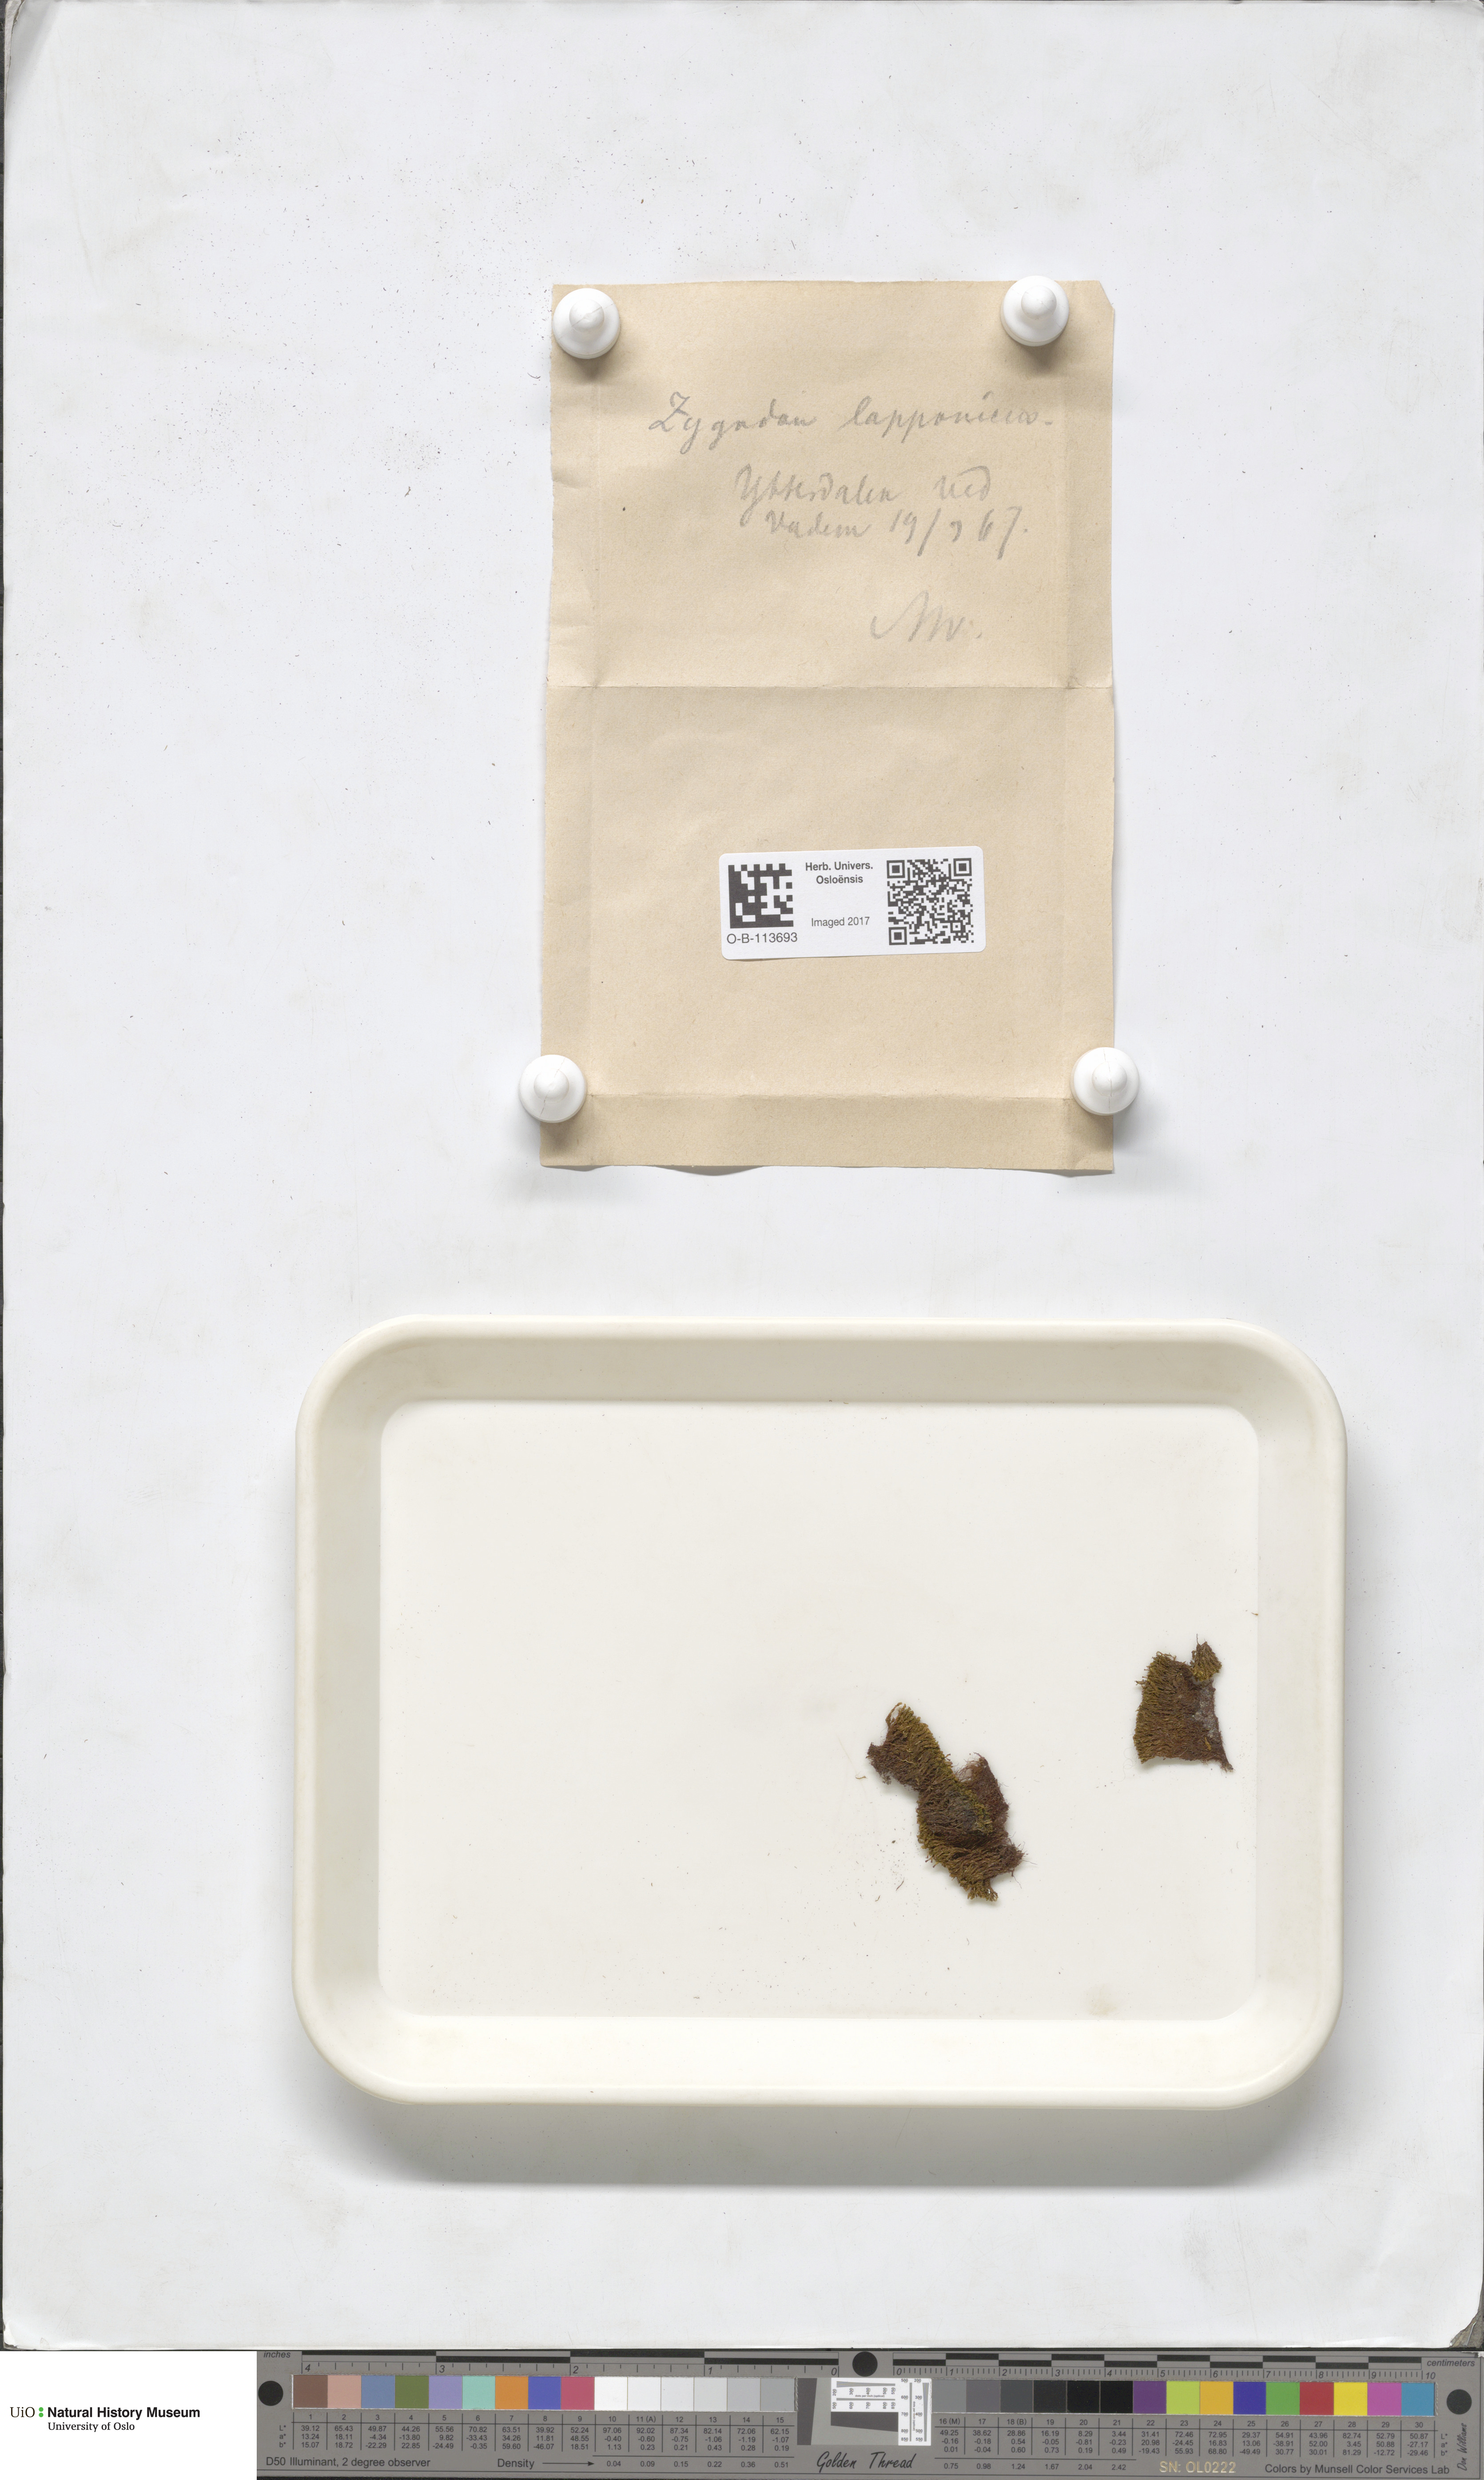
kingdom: Plantae
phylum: Bryophyta
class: Bryopsida
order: Dicranales
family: Amphidiaceae
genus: Amphidium
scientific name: Amphidium lapponicum
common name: Lapland yoke moss
